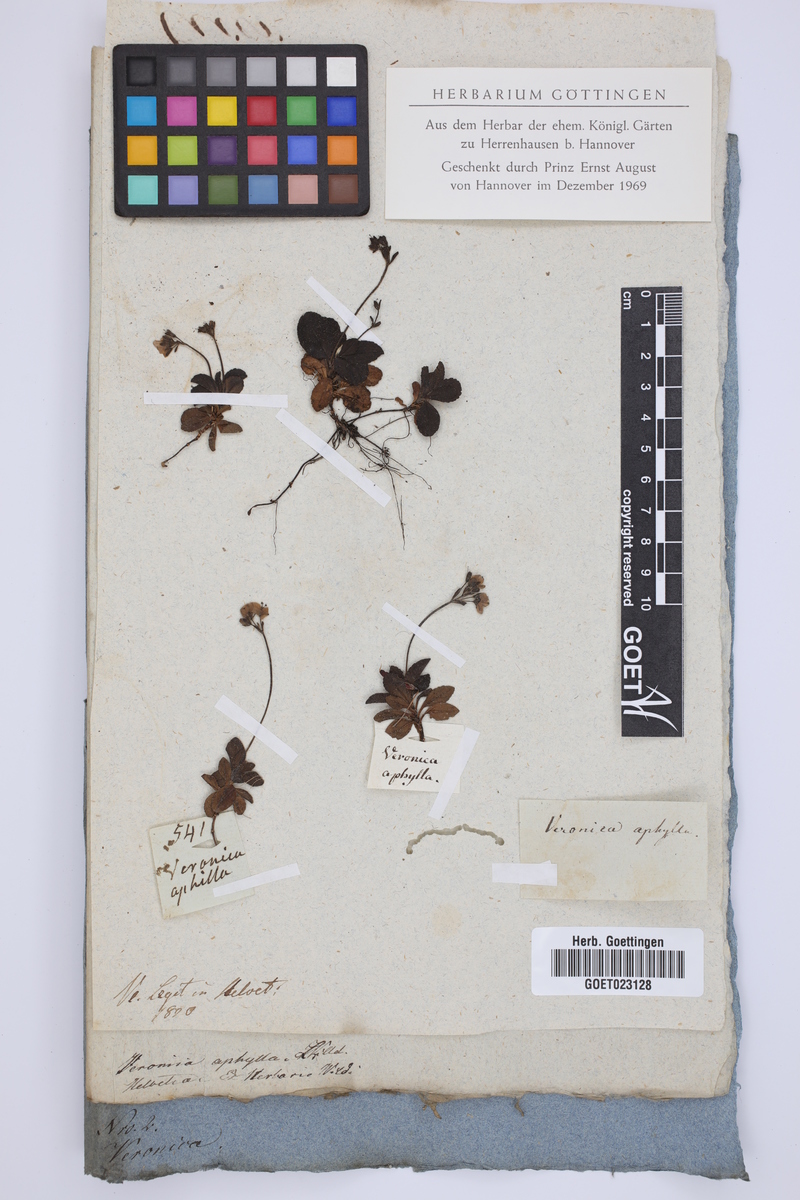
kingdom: Plantae
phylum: Tracheophyta
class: Magnoliopsida
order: Lamiales
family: Plantaginaceae
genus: Veronica
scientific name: Veronica aphylla
